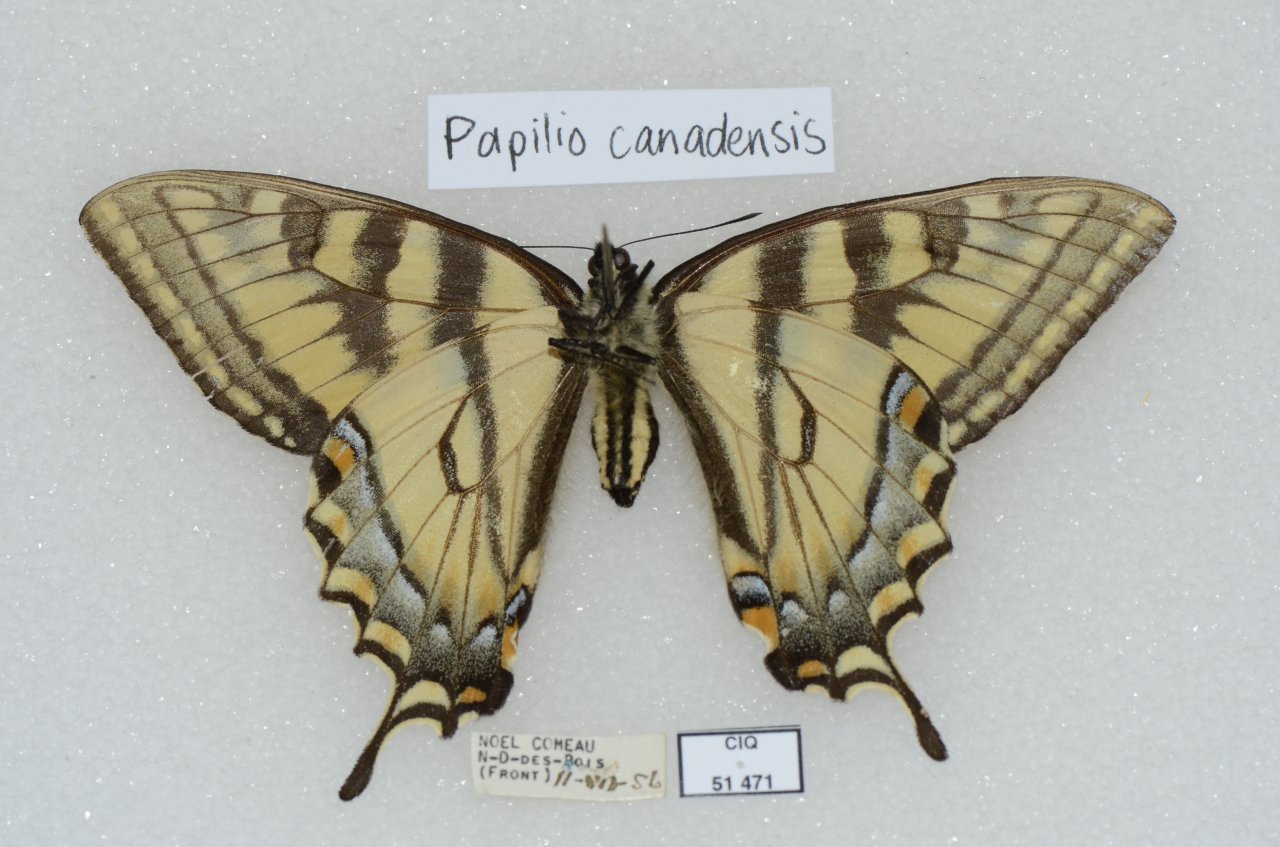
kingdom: Animalia
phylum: Arthropoda
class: Insecta
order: Lepidoptera
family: Papilionidae
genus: Pterourus
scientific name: Pterourus canadensis
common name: Canadian Tiger Swallowtail
